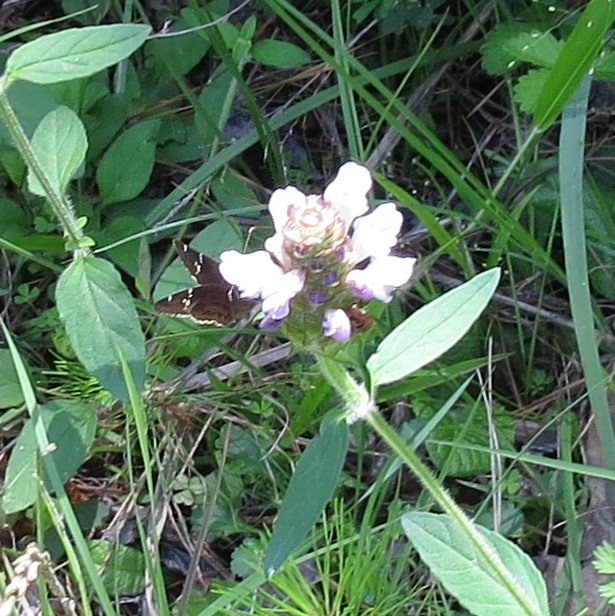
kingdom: Animalia
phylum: Arthropoda
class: Insecta
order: Lepidoptera
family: Hesperiidae
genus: Autochton
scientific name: Autochton
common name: Southern Cloudywing
